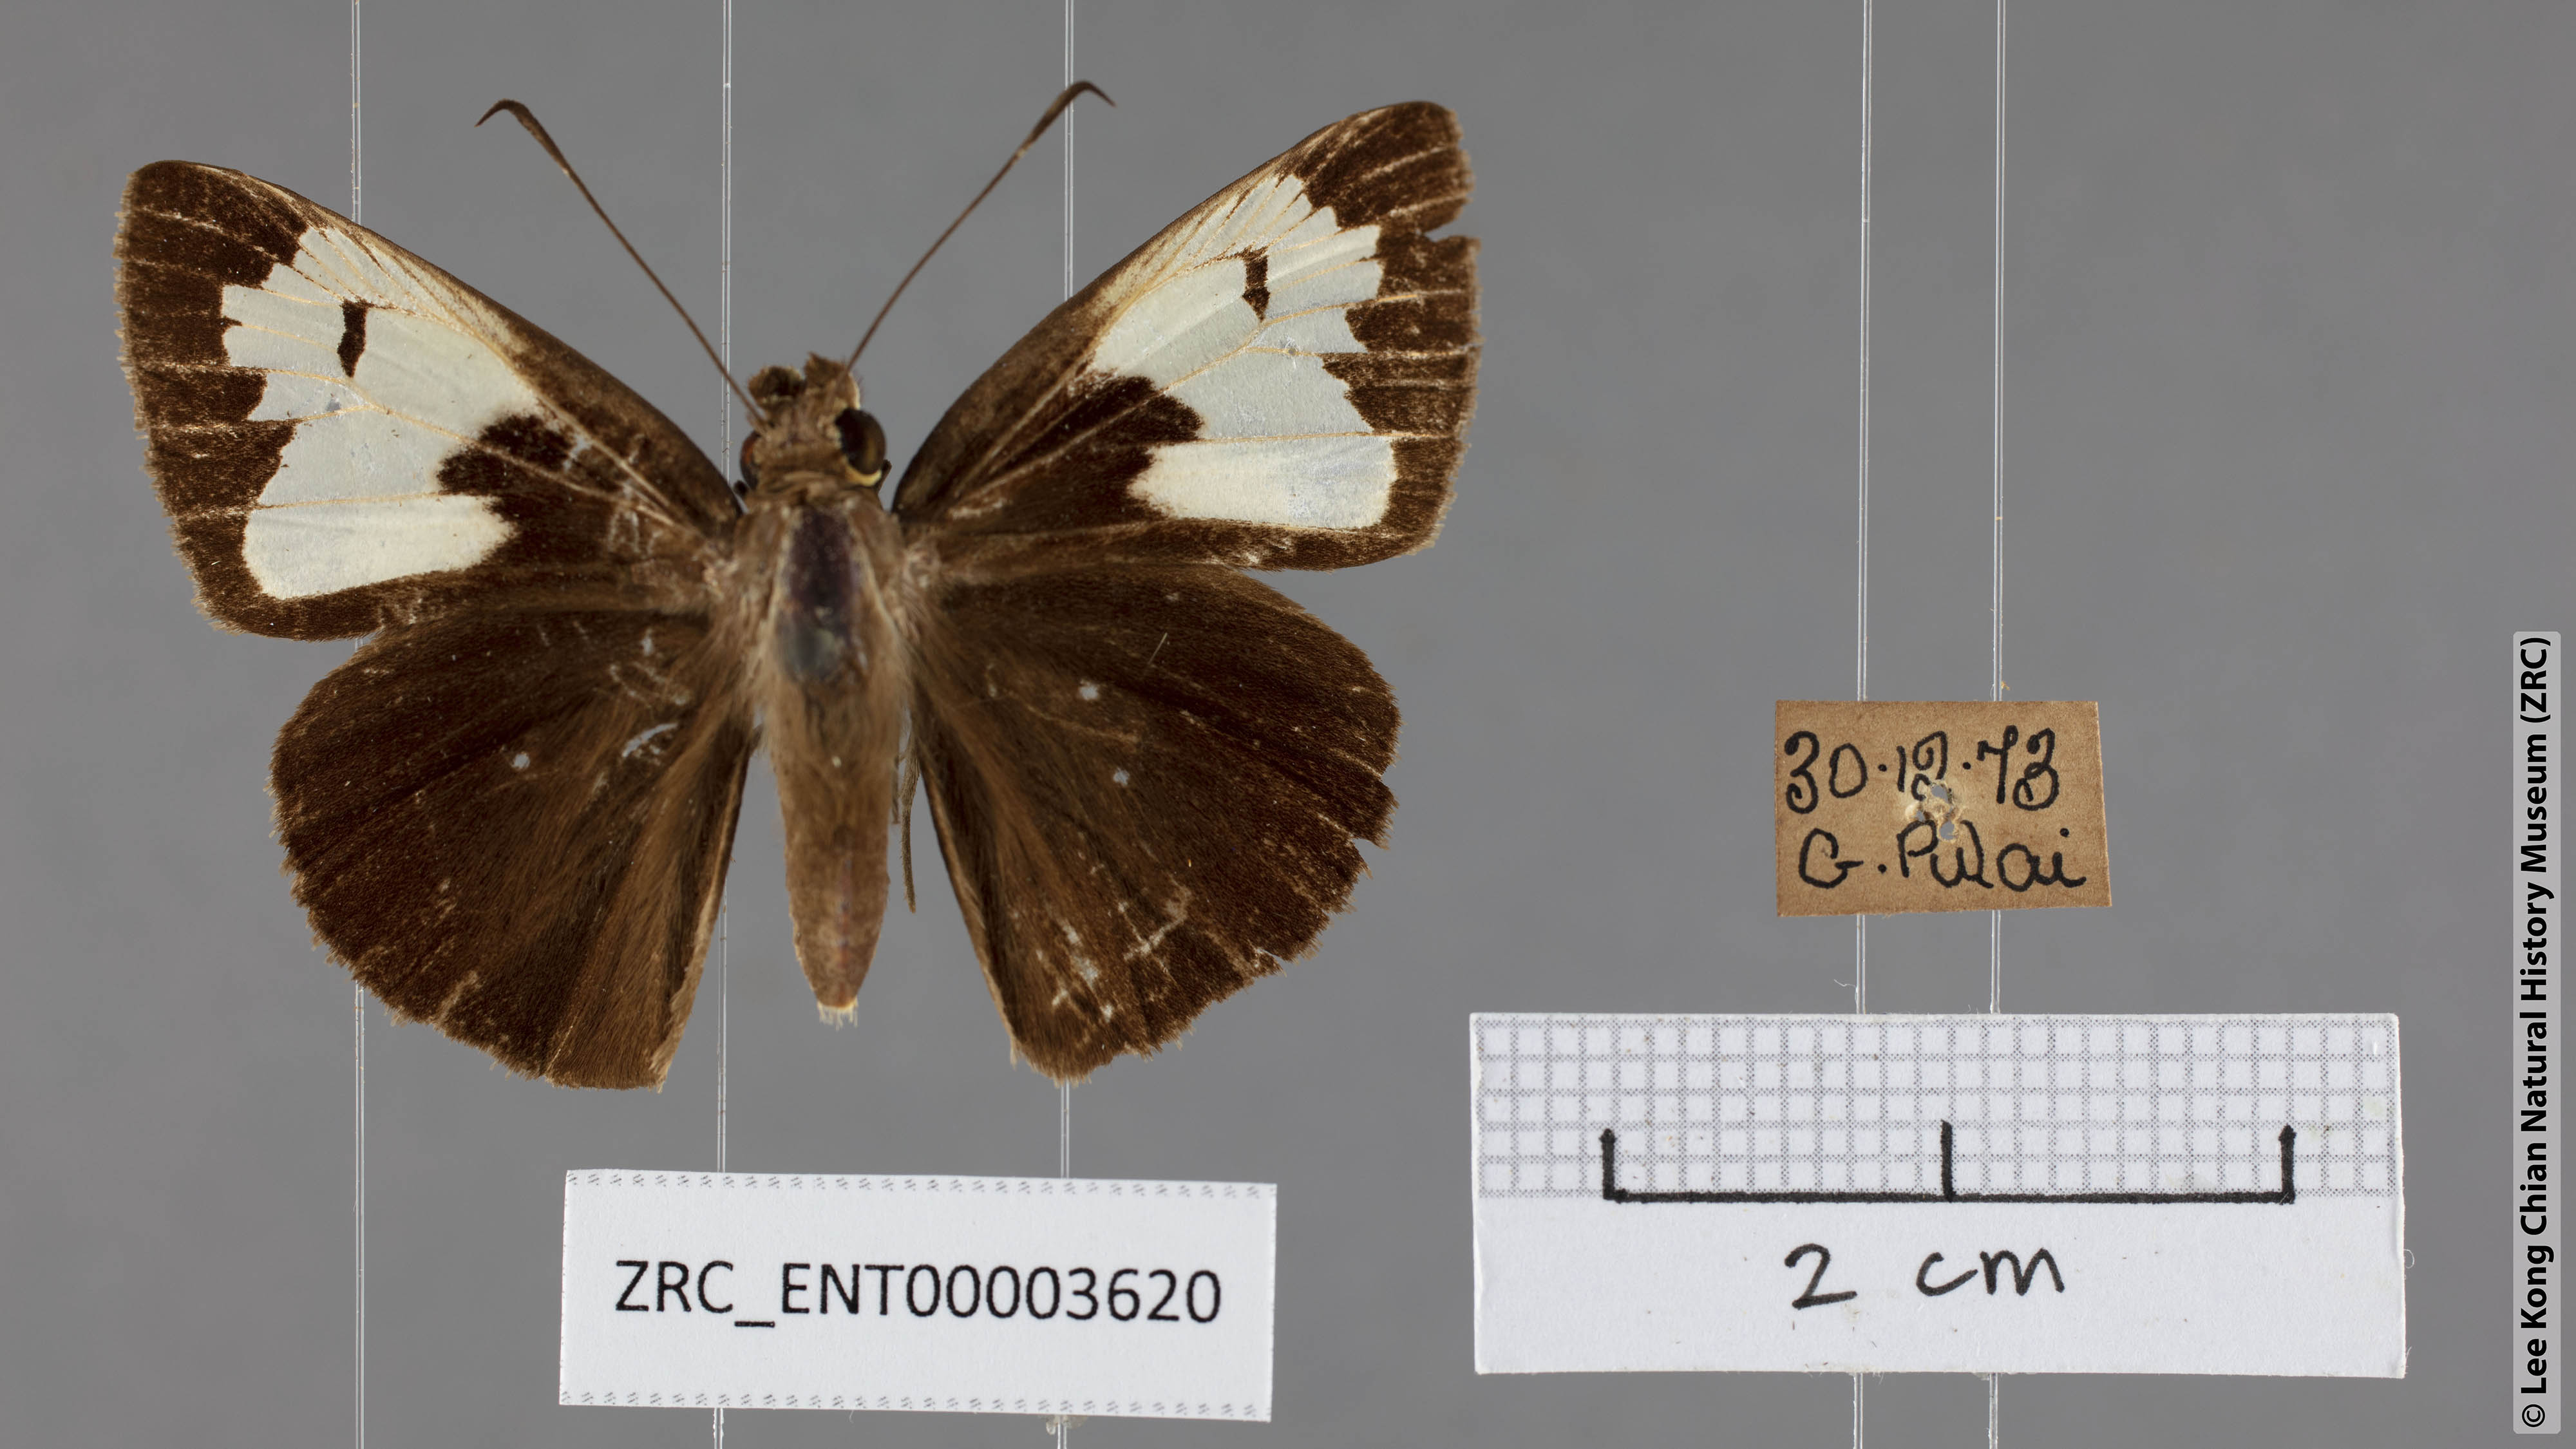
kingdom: Animalia
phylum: Arthropoda
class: Insecta
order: Lepidoptera
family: Hesperiidae
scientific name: Hesperiidae
